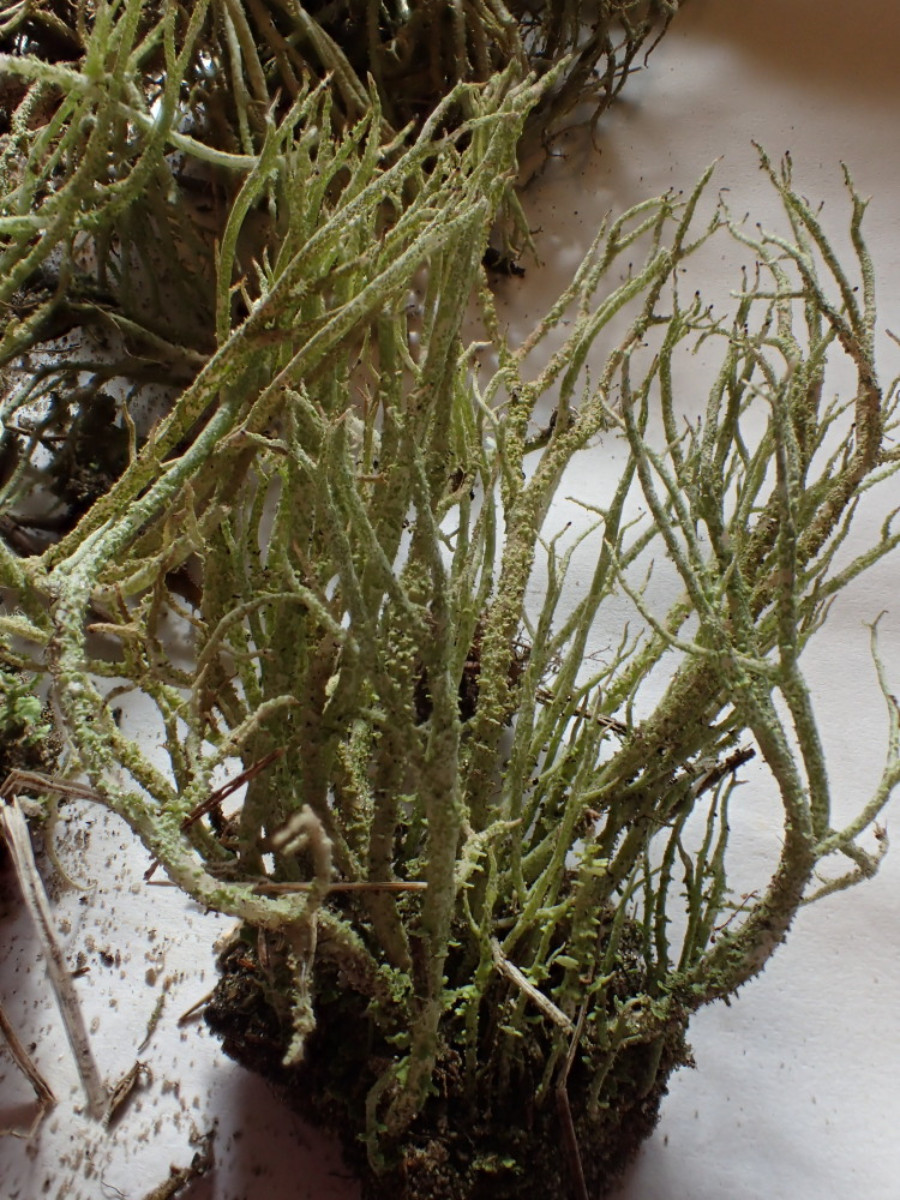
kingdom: Fungi
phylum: Ascomycota
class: Lecanoromycetes
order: Lecanorales
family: Cladoniaceae
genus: Cladonia
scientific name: Cladonia scabriuscula
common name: ru bægerlav
